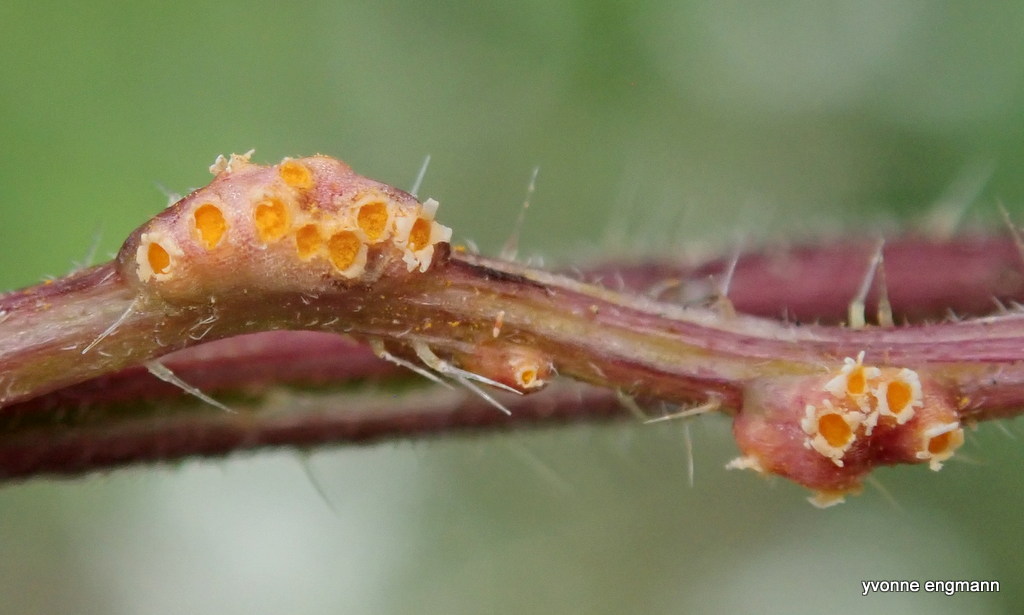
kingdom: Fungi
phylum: Basidiomycota
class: Pucciniomycetes
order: Pucciniales
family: Pucciniaceae
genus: Puccinia
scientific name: Puccinia urticata
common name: nældegalle-tvecellerust
